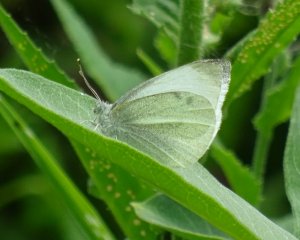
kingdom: Animalia
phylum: Arthropoda
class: Insecta
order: Lepidoptera
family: Pieridae
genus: Pieris
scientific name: Pieris rapae
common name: Cabbage White
